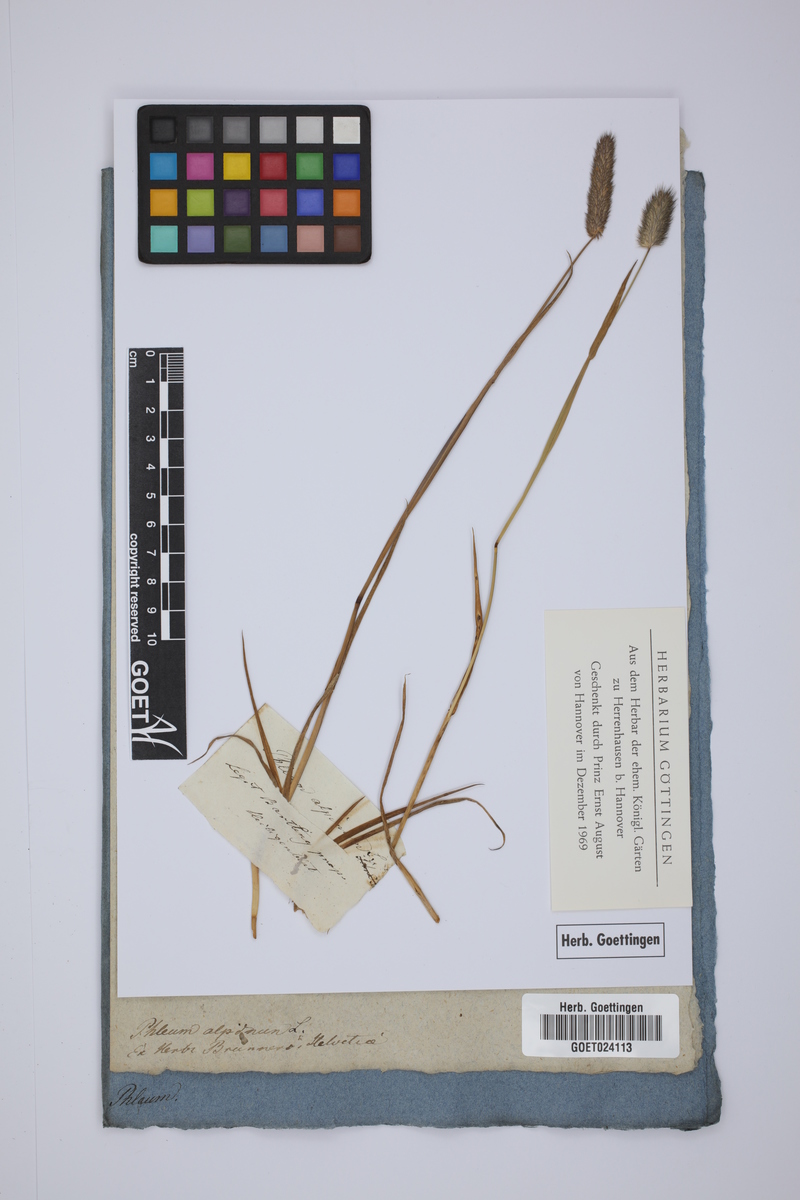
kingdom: Plantae
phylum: Tracheophyta
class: Liliopsida
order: Poales
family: Poaceae
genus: Phleum
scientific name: Phleum alpinum
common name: Alpine cat's-tail
